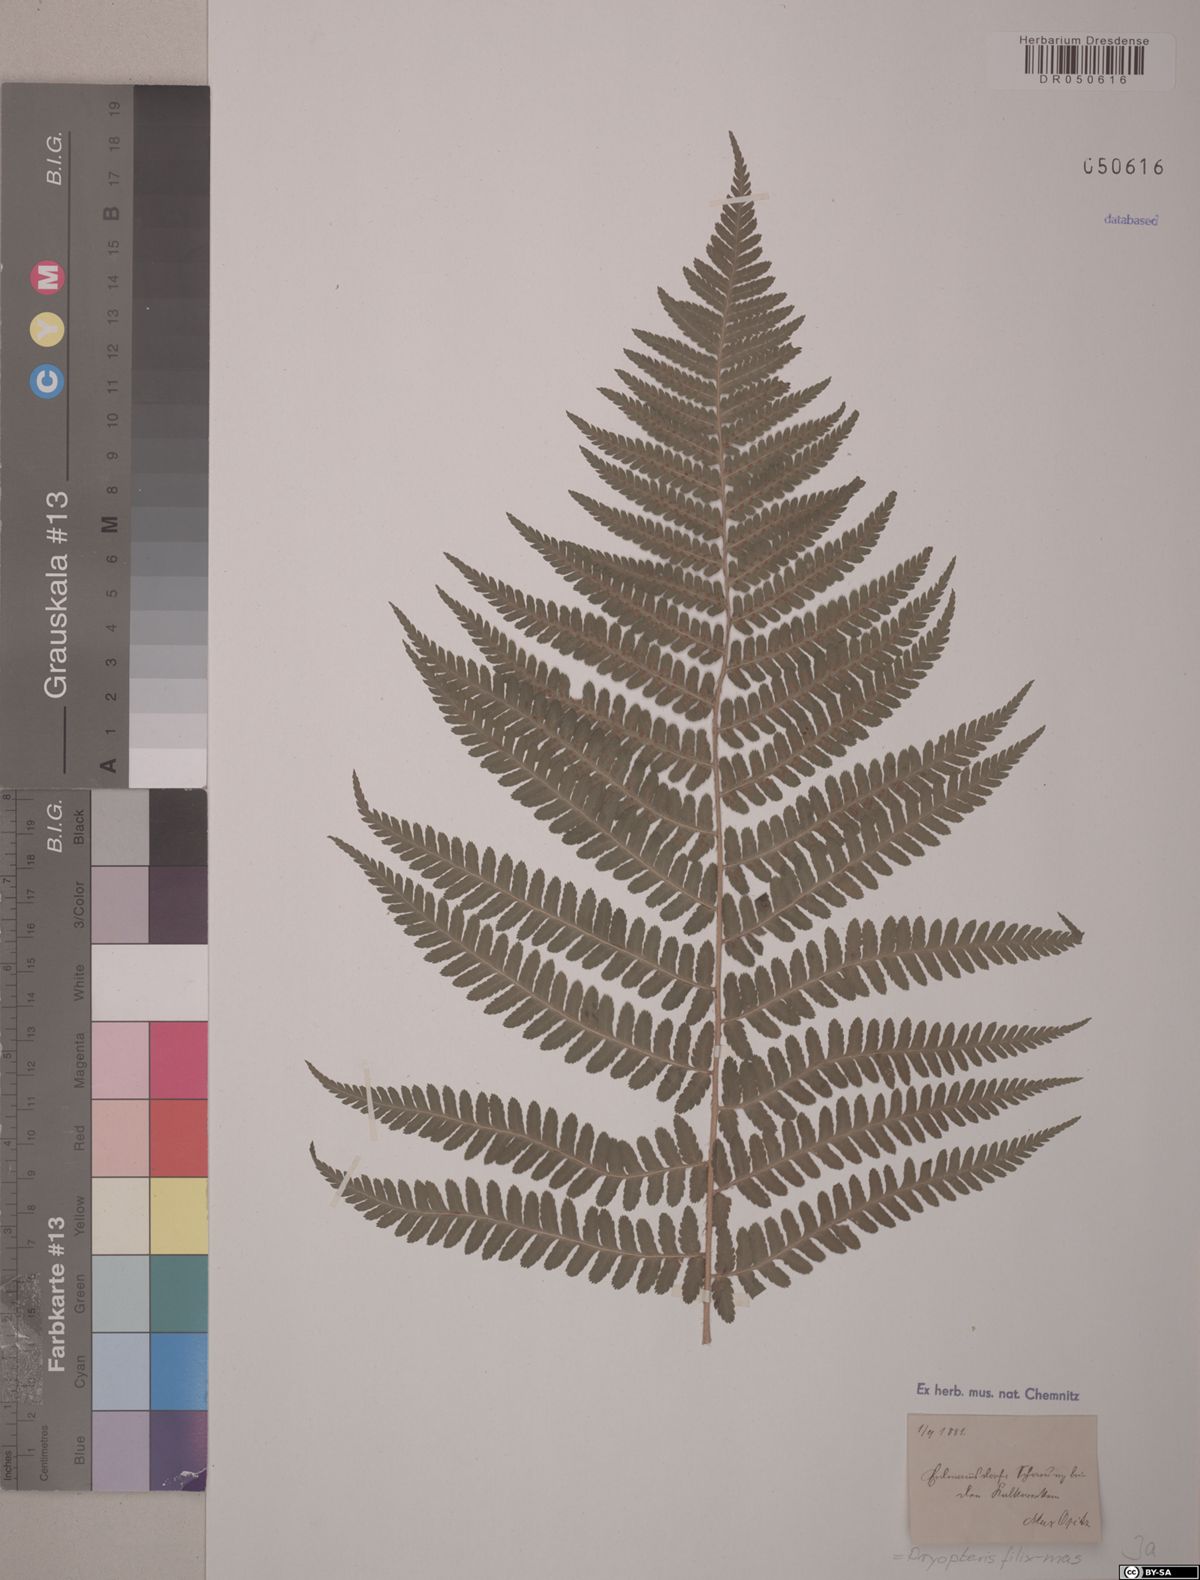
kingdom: Plantae
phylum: Tracheophyta
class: Polypodiopsida
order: Polypodiales
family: Dryopteridaceae
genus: Dryopteris
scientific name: Dryopteris filix-mas
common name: Male fern
